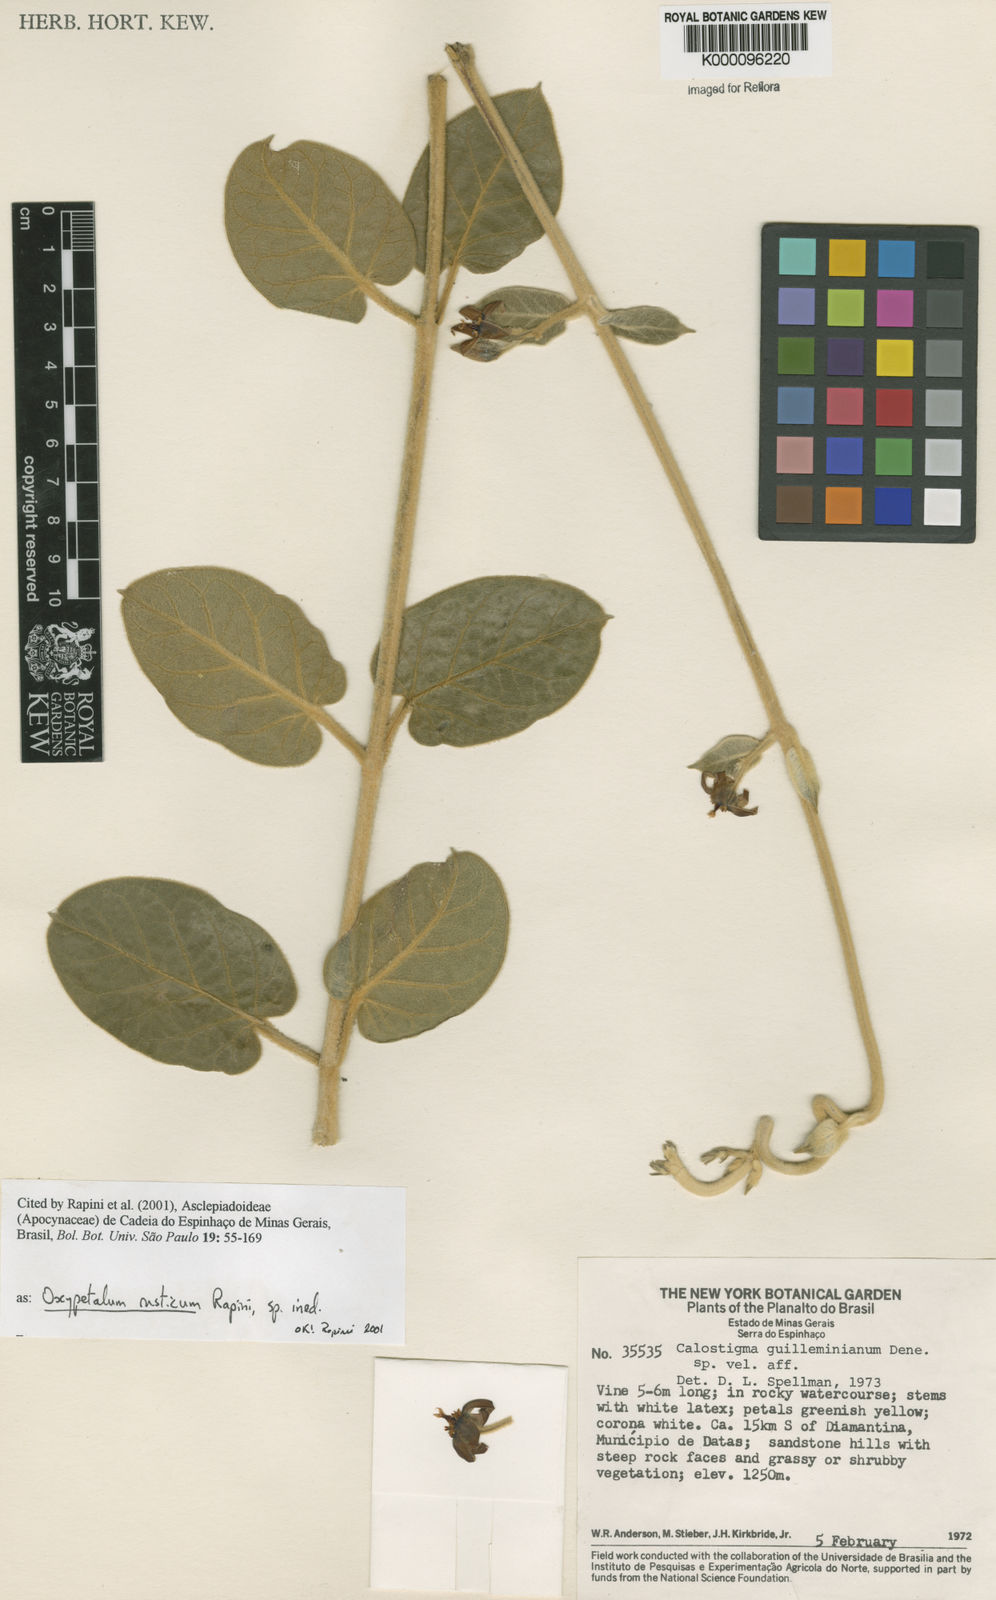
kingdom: Plantae
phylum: Tracheophyta
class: Magnoliopsida
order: Gentianales
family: Apocynaceae
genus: Oxypetalum
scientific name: Oxypetalum rusticum
